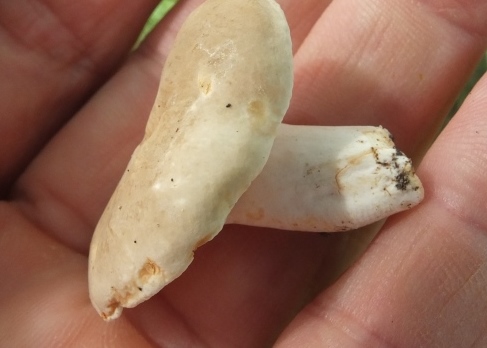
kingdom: Fungi
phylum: Basidiomycota
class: Agaricomycetes
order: Russulales
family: Russulaceae
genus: Lactarius
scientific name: Lactarius azonites
